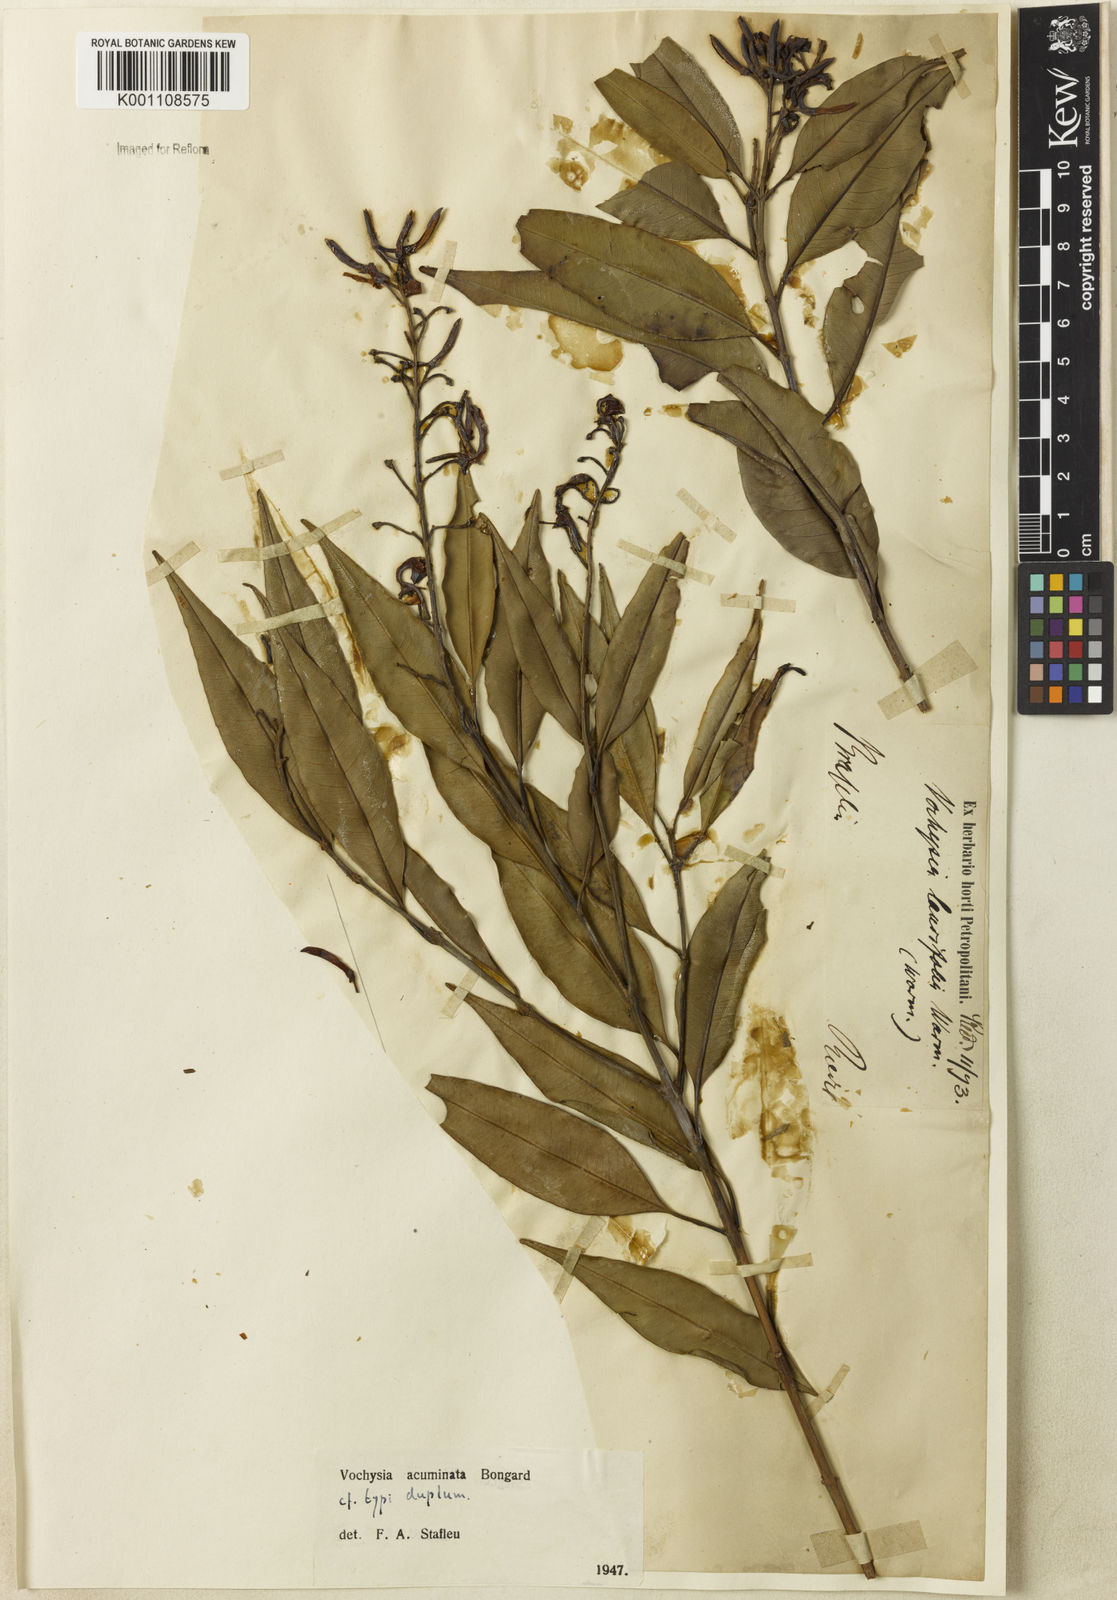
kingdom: Plantae
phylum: Tracheophyta
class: Magnoliopsida
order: Myrtales
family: Vochysiaceae
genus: Vochysia
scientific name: Vochysia laurifolia
